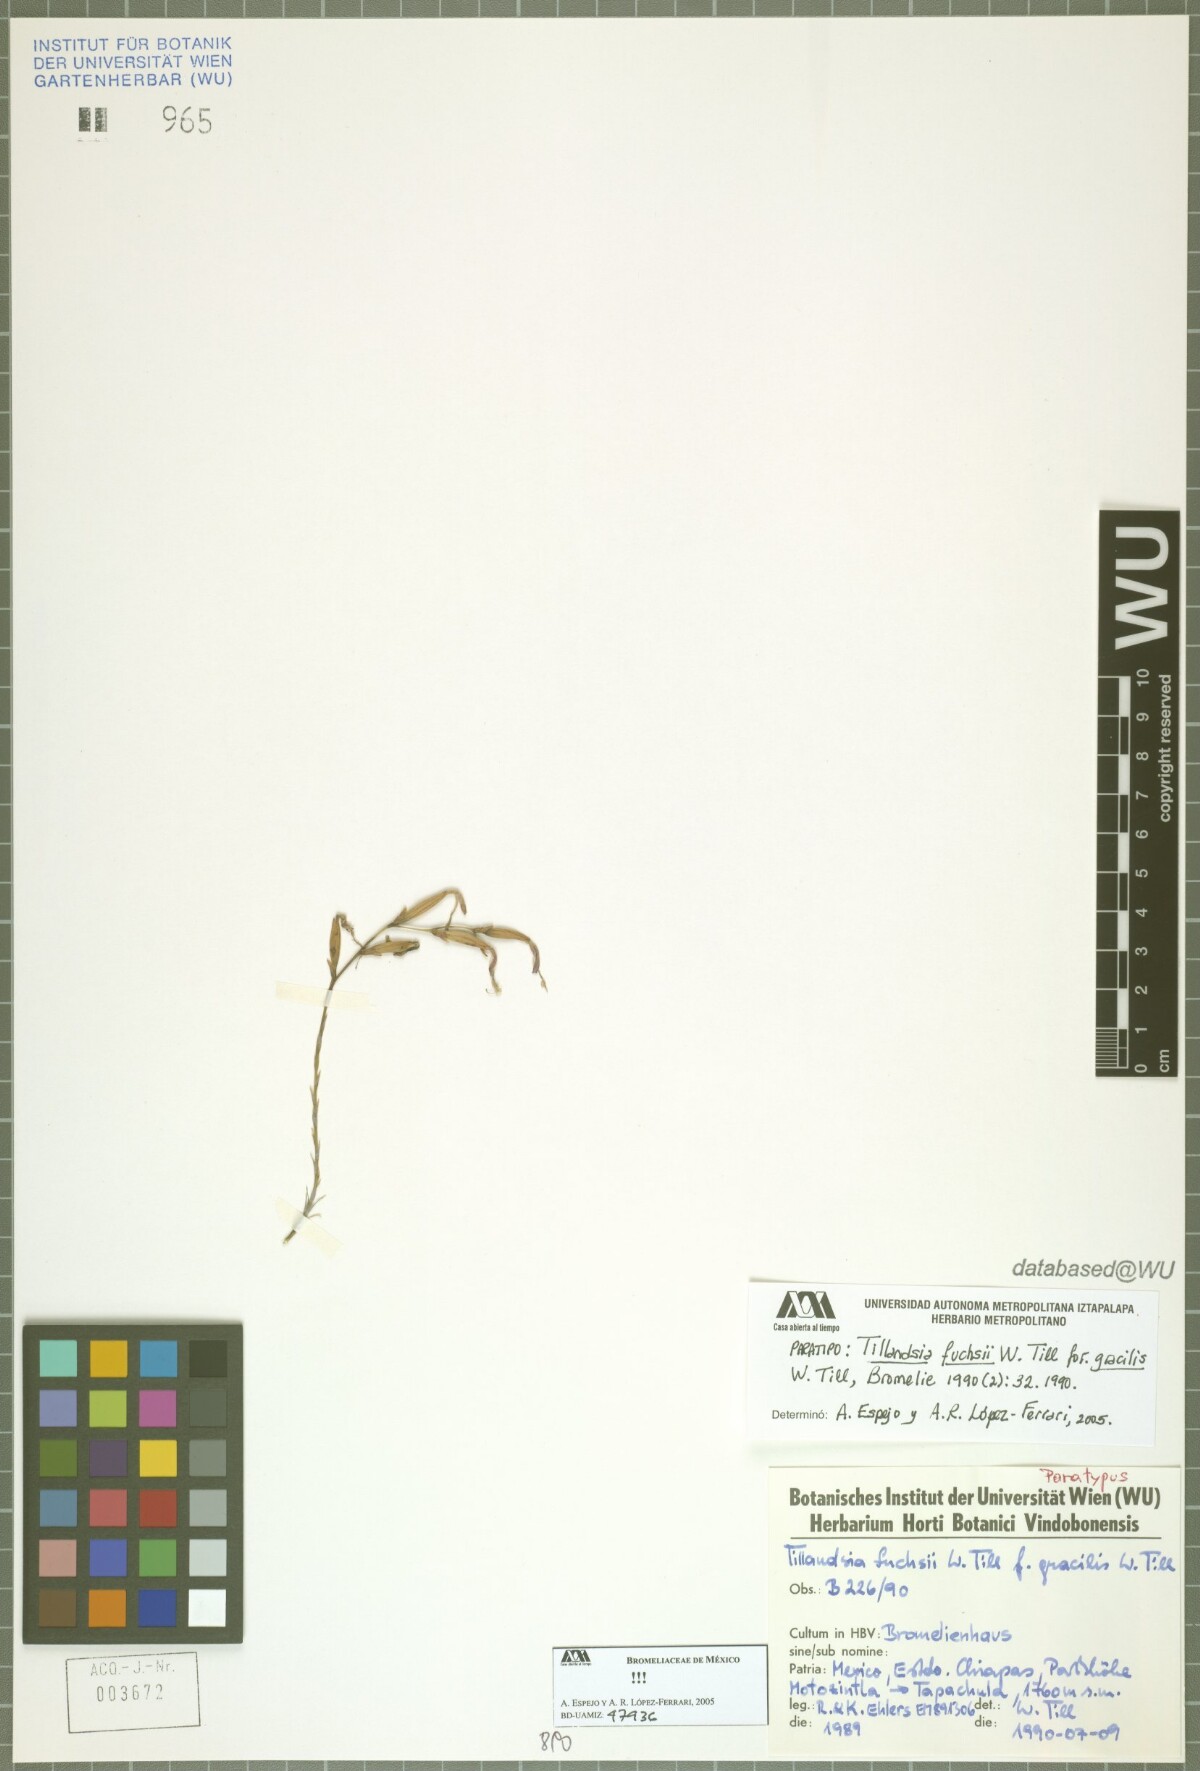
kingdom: Plantae
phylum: Tracheophyta
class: Liliopsida
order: Poales
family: Bromeliaceae
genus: Tillandsia
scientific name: Tillandsia fuchsii
